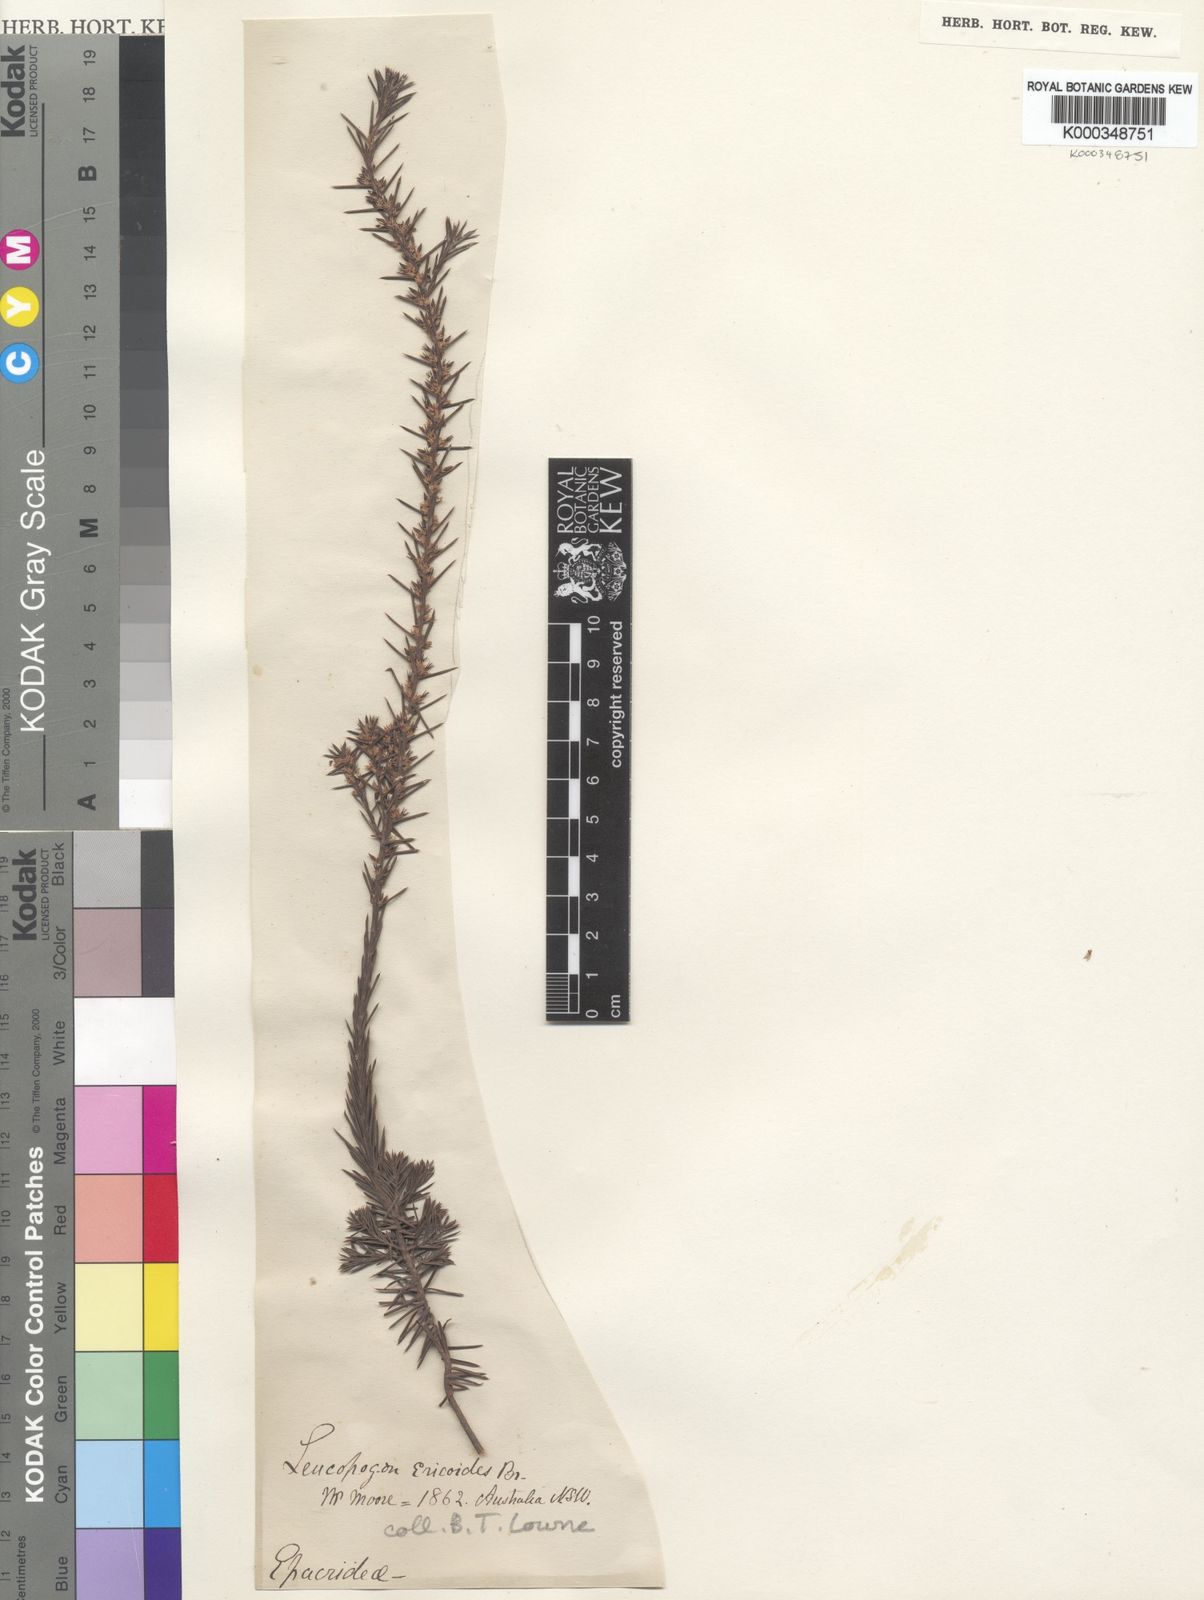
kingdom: Plantae
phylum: Tracheophyta
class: Magnoliopsida
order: Ericales
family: Ericaceae
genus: Styphelia
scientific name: Styphelia ericoides
